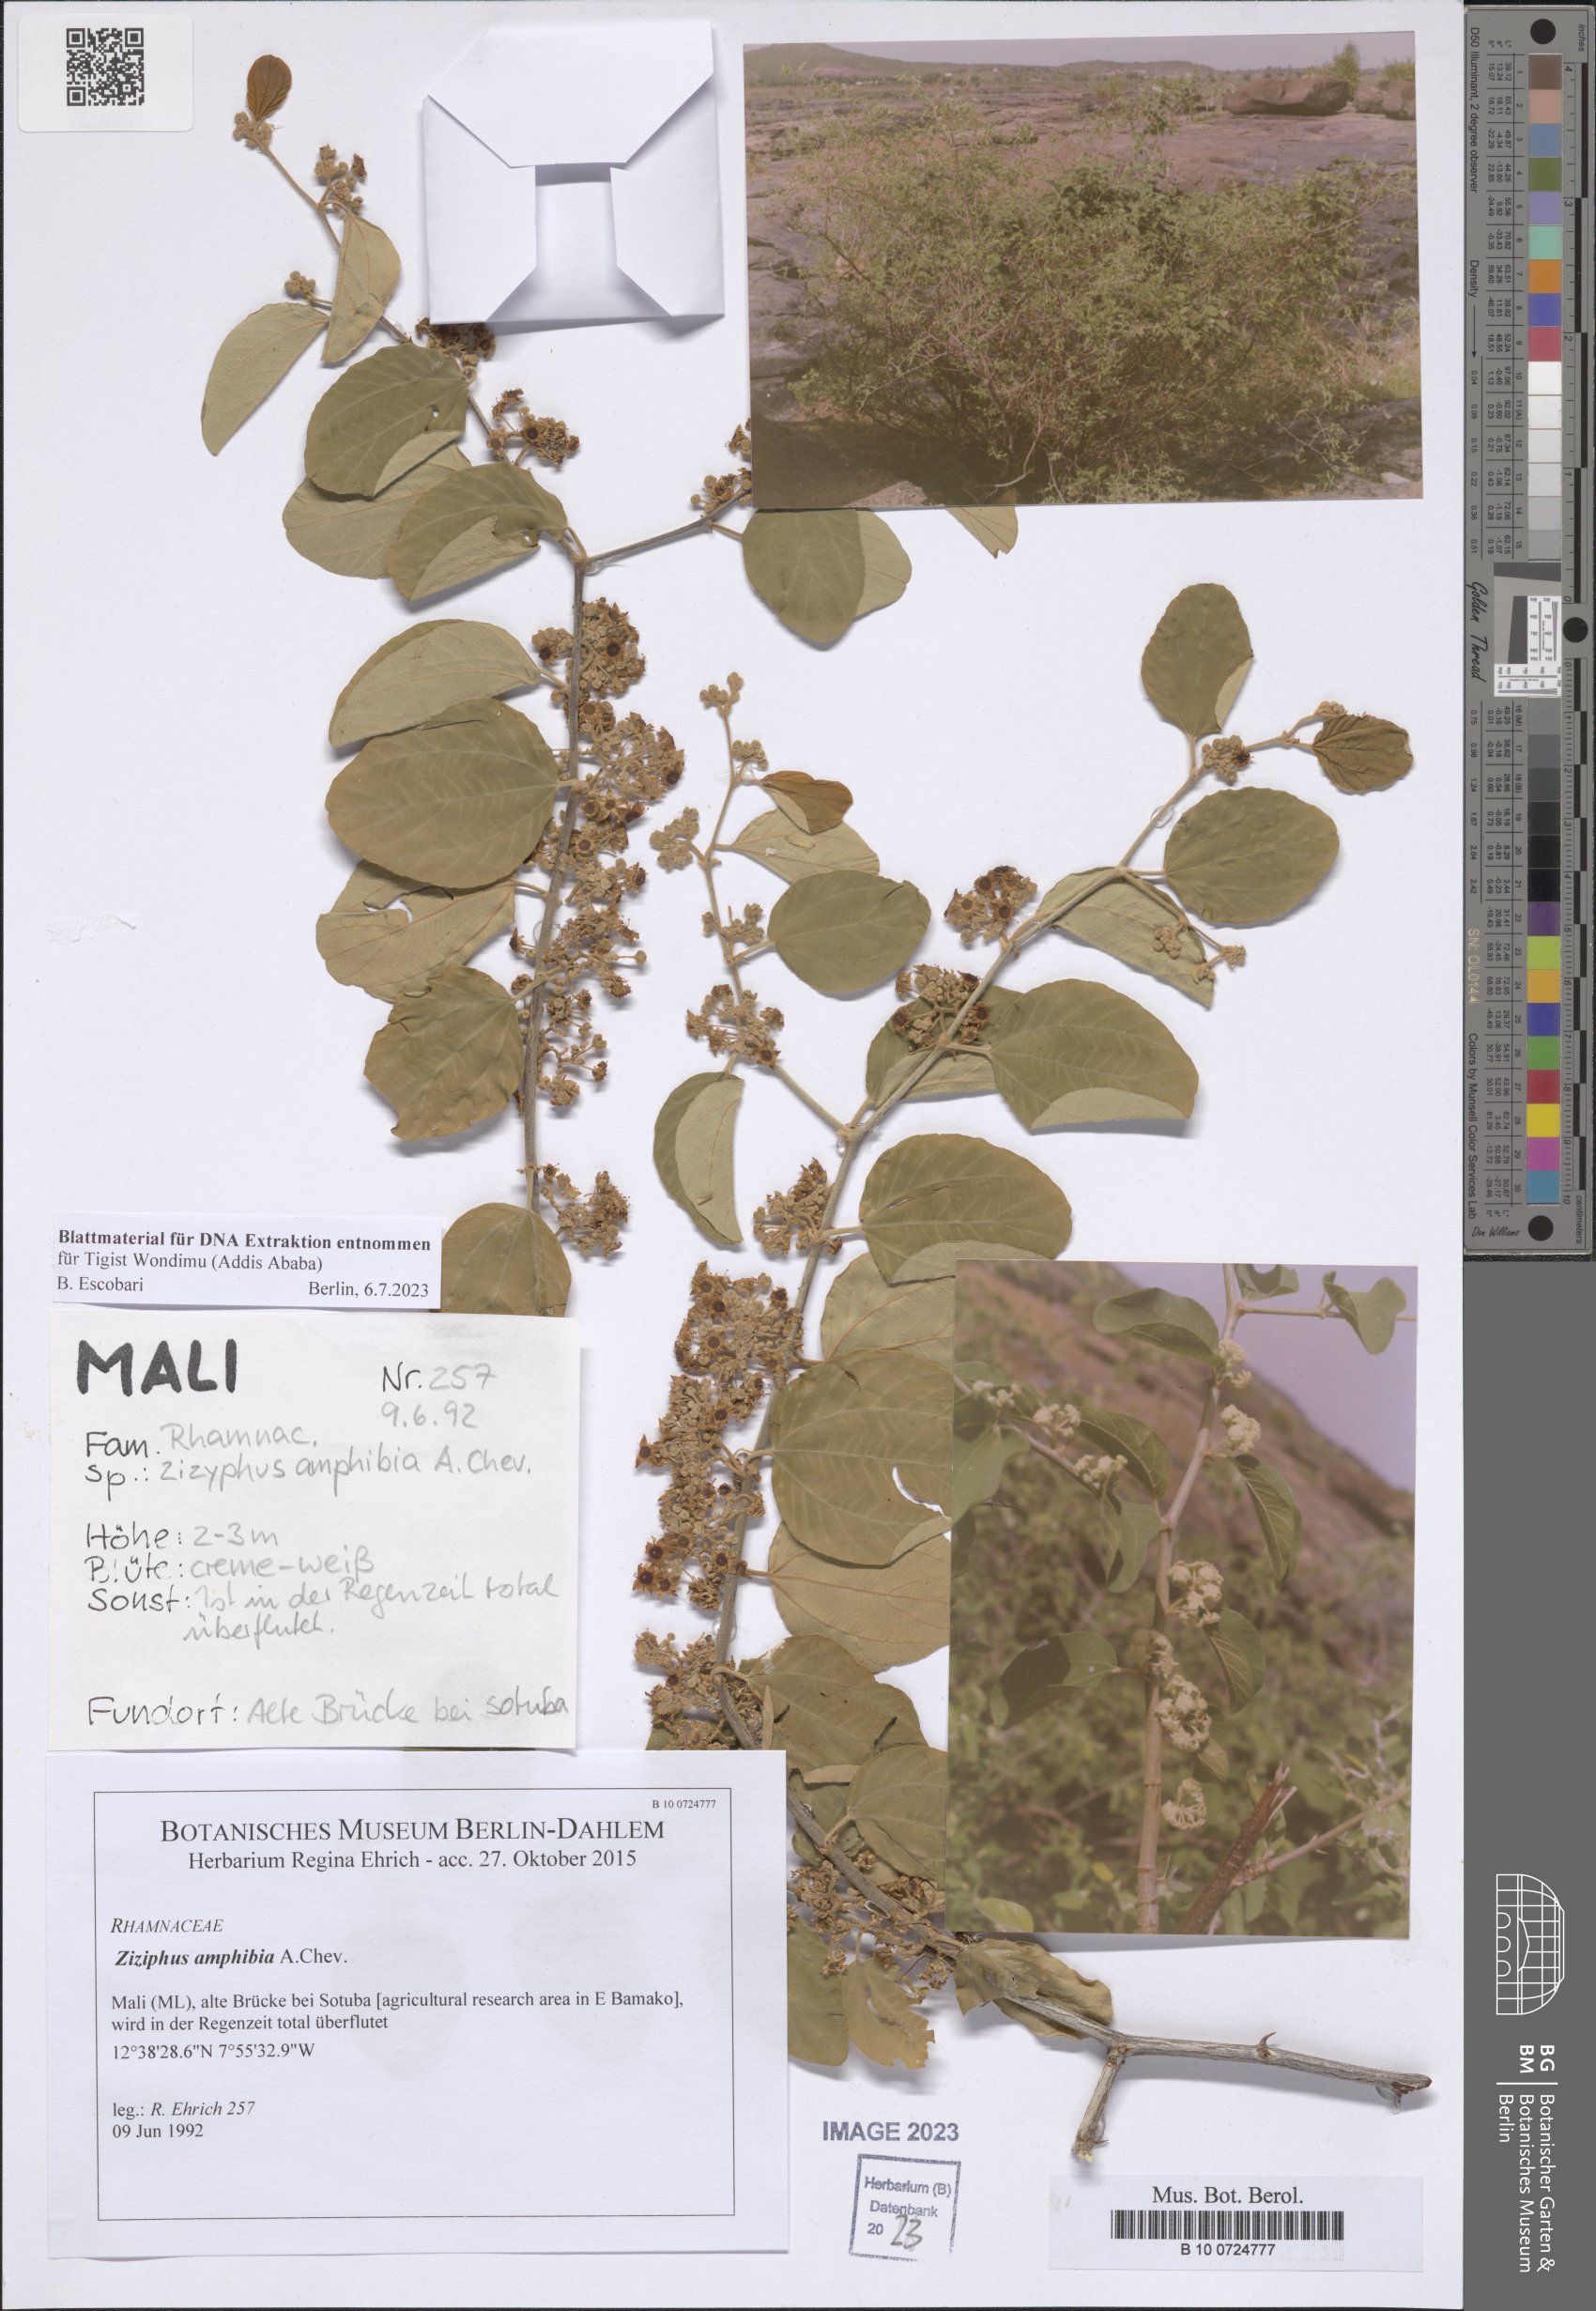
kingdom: Plantae
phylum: Tracheophyta
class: Magnoliopsida
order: Rosales
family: Rhamnaceae
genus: Ziziphus
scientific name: Ziziphus spina-christi
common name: Syrian christ-thorn
